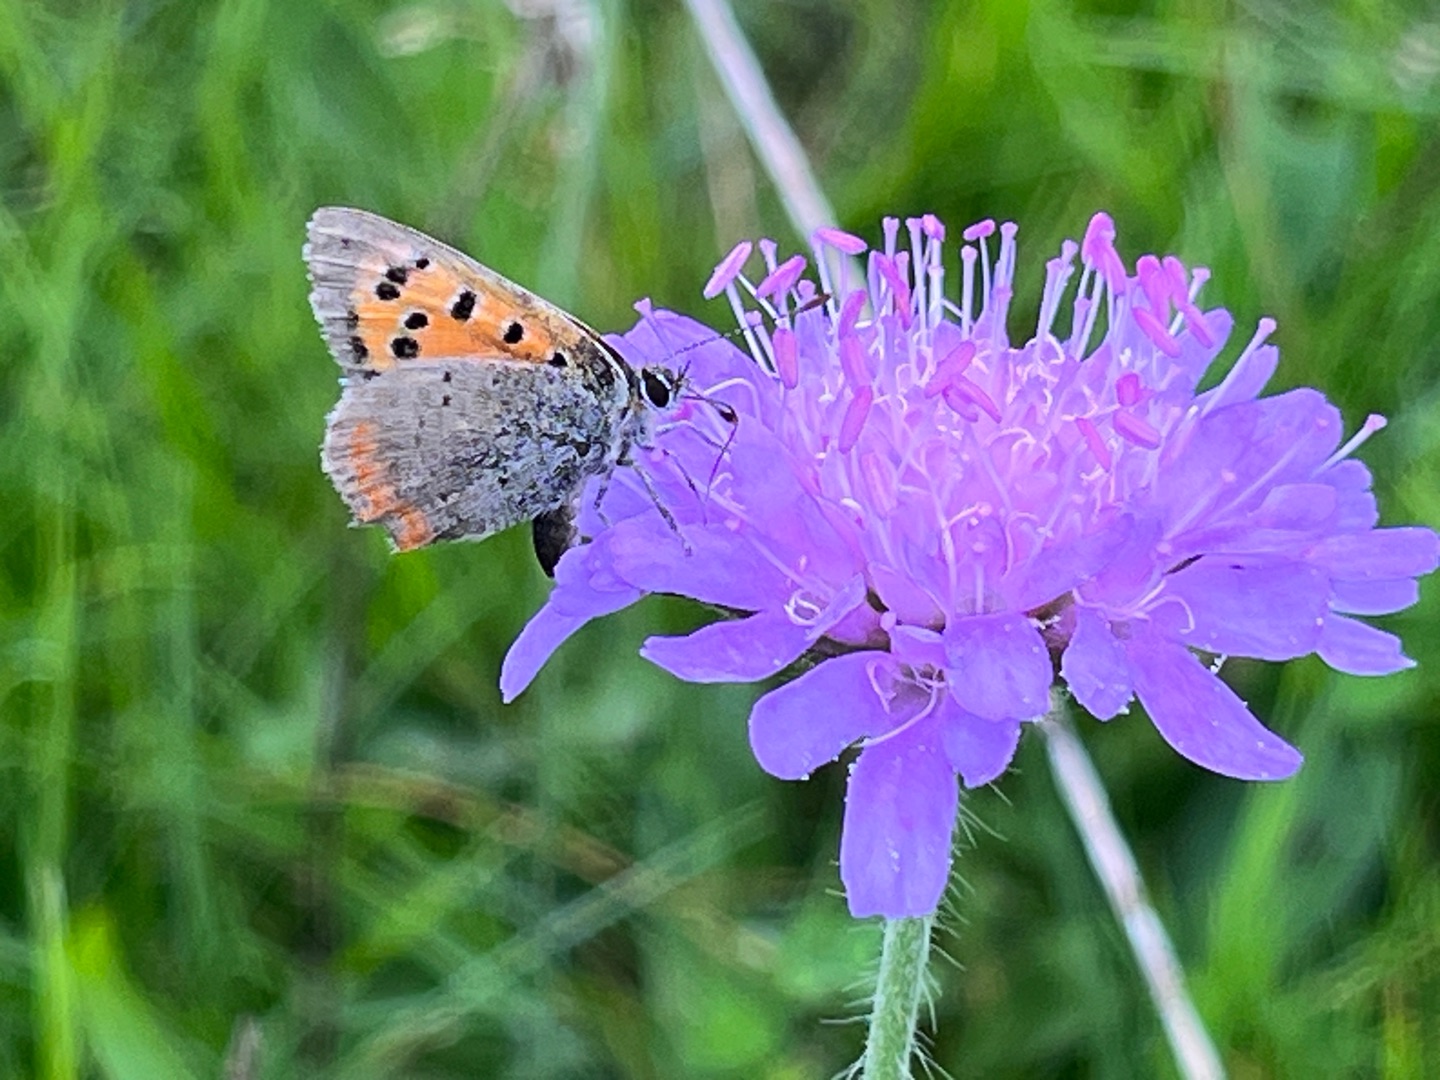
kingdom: Animalia
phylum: Arthropoda
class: Insecta
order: Lepidoptera
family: Lycaenidae
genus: Lycaena
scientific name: Lycaena phlaeas
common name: Lille ildfugl
